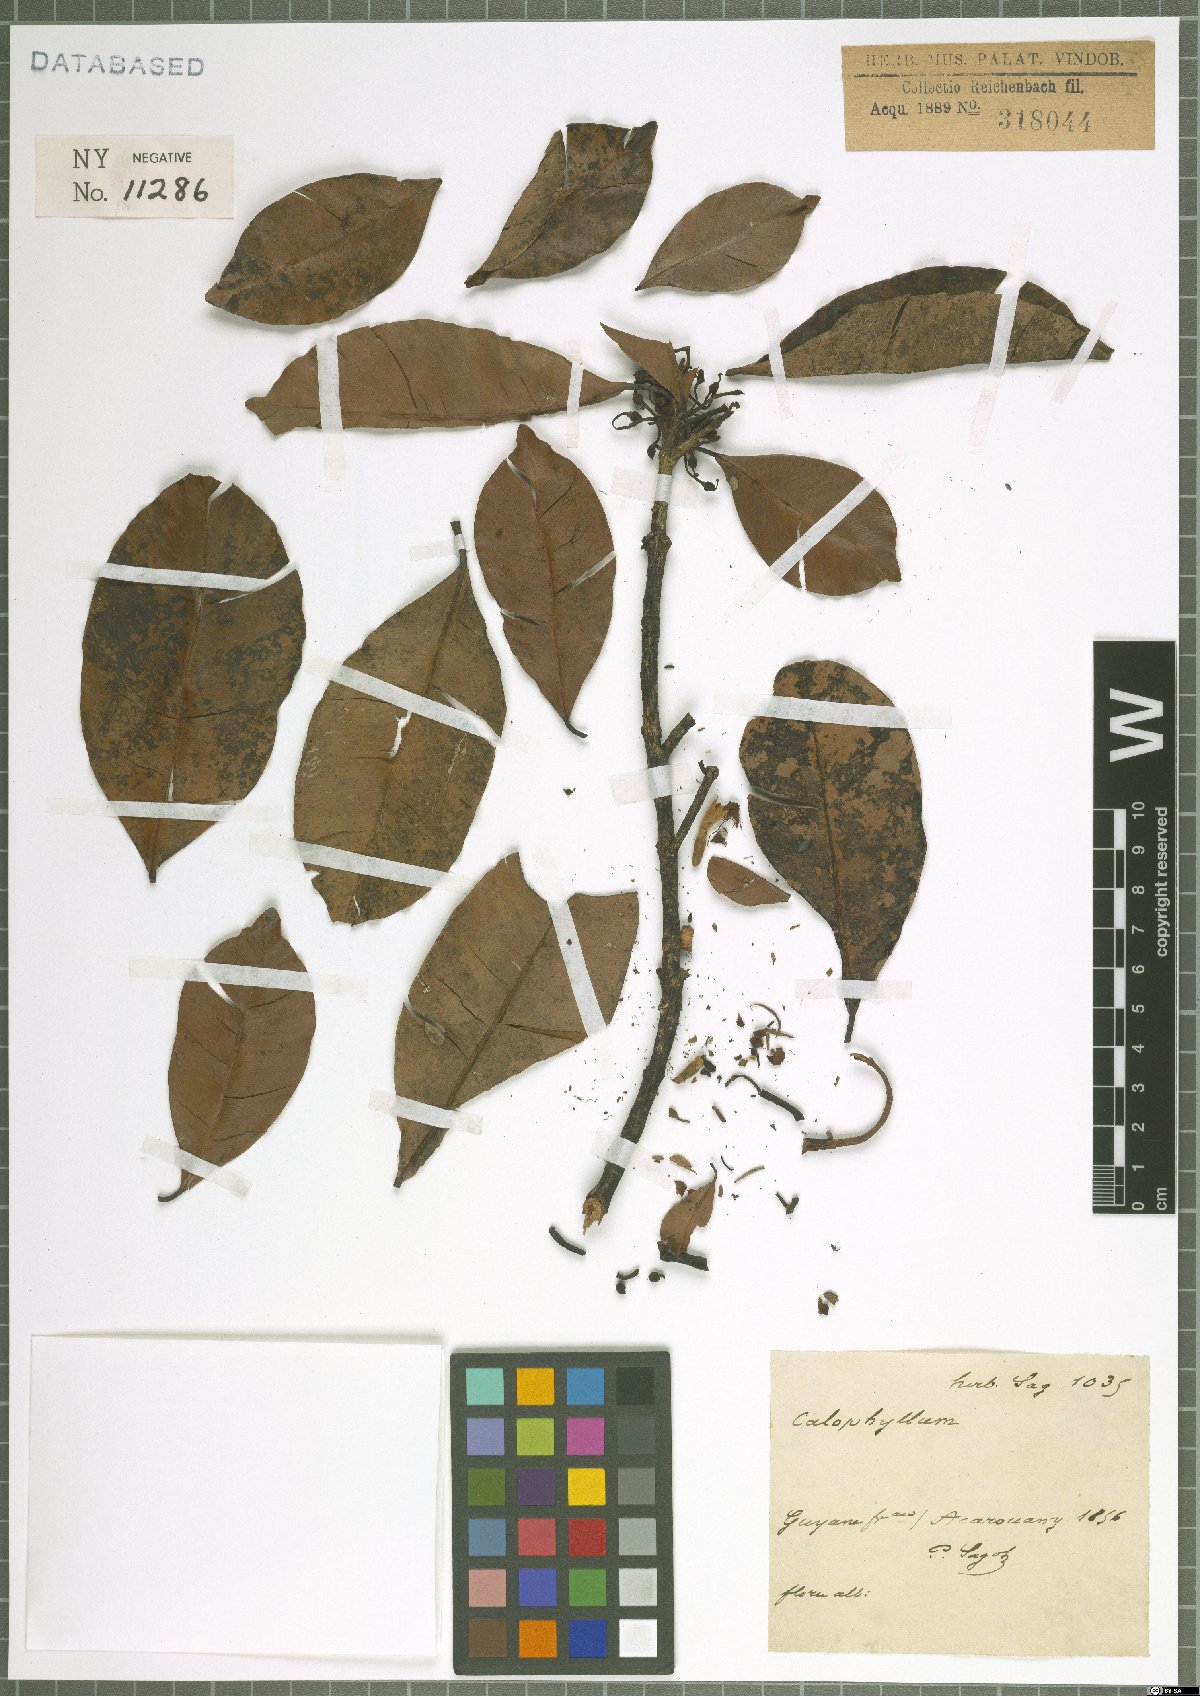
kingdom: Plantae
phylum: Tracheophyta
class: Magnoliopsida
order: Malpighiales
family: Calophyllaceae
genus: Calophyllum
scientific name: Calophyllum
